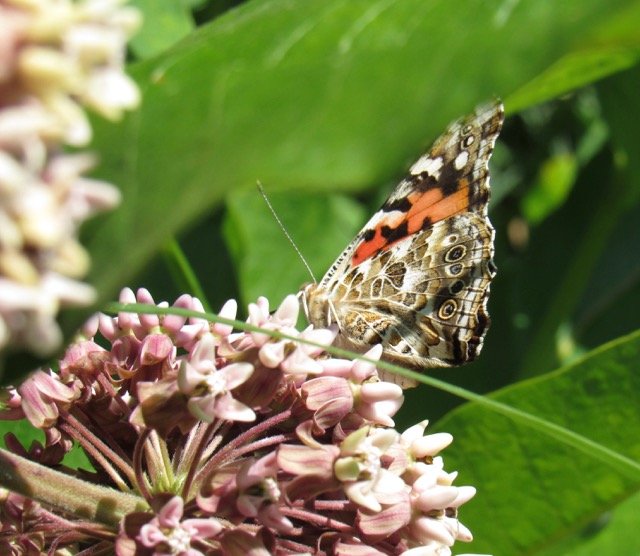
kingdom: Animalia
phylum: Arthropoda
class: Insecta
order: Lepidoptera
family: Nymphalidae
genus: Vanessa
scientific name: Vanessa cardui
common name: Painted Lady
